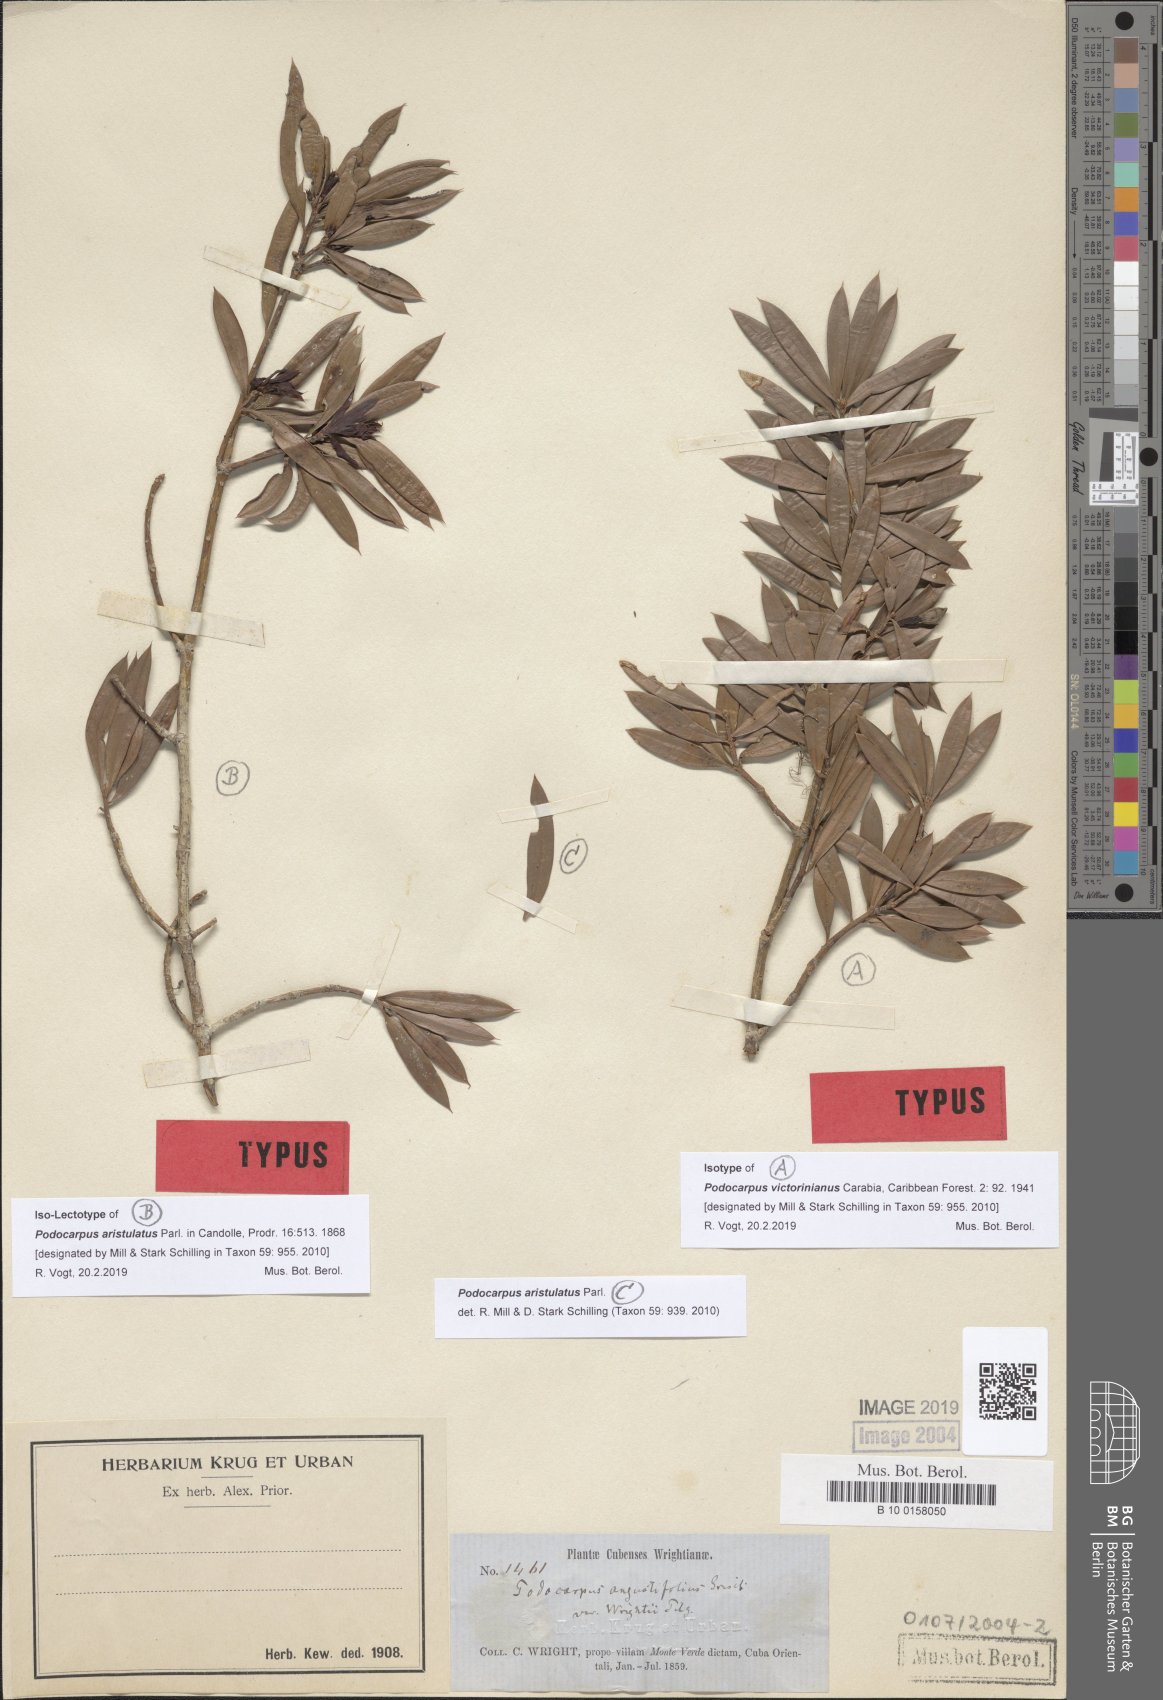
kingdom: Plantae
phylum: Tracheophyta
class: Pinopsida
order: Pinales
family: Podocarpaceae
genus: Podocarpus
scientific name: Podocarpus angustifolius
